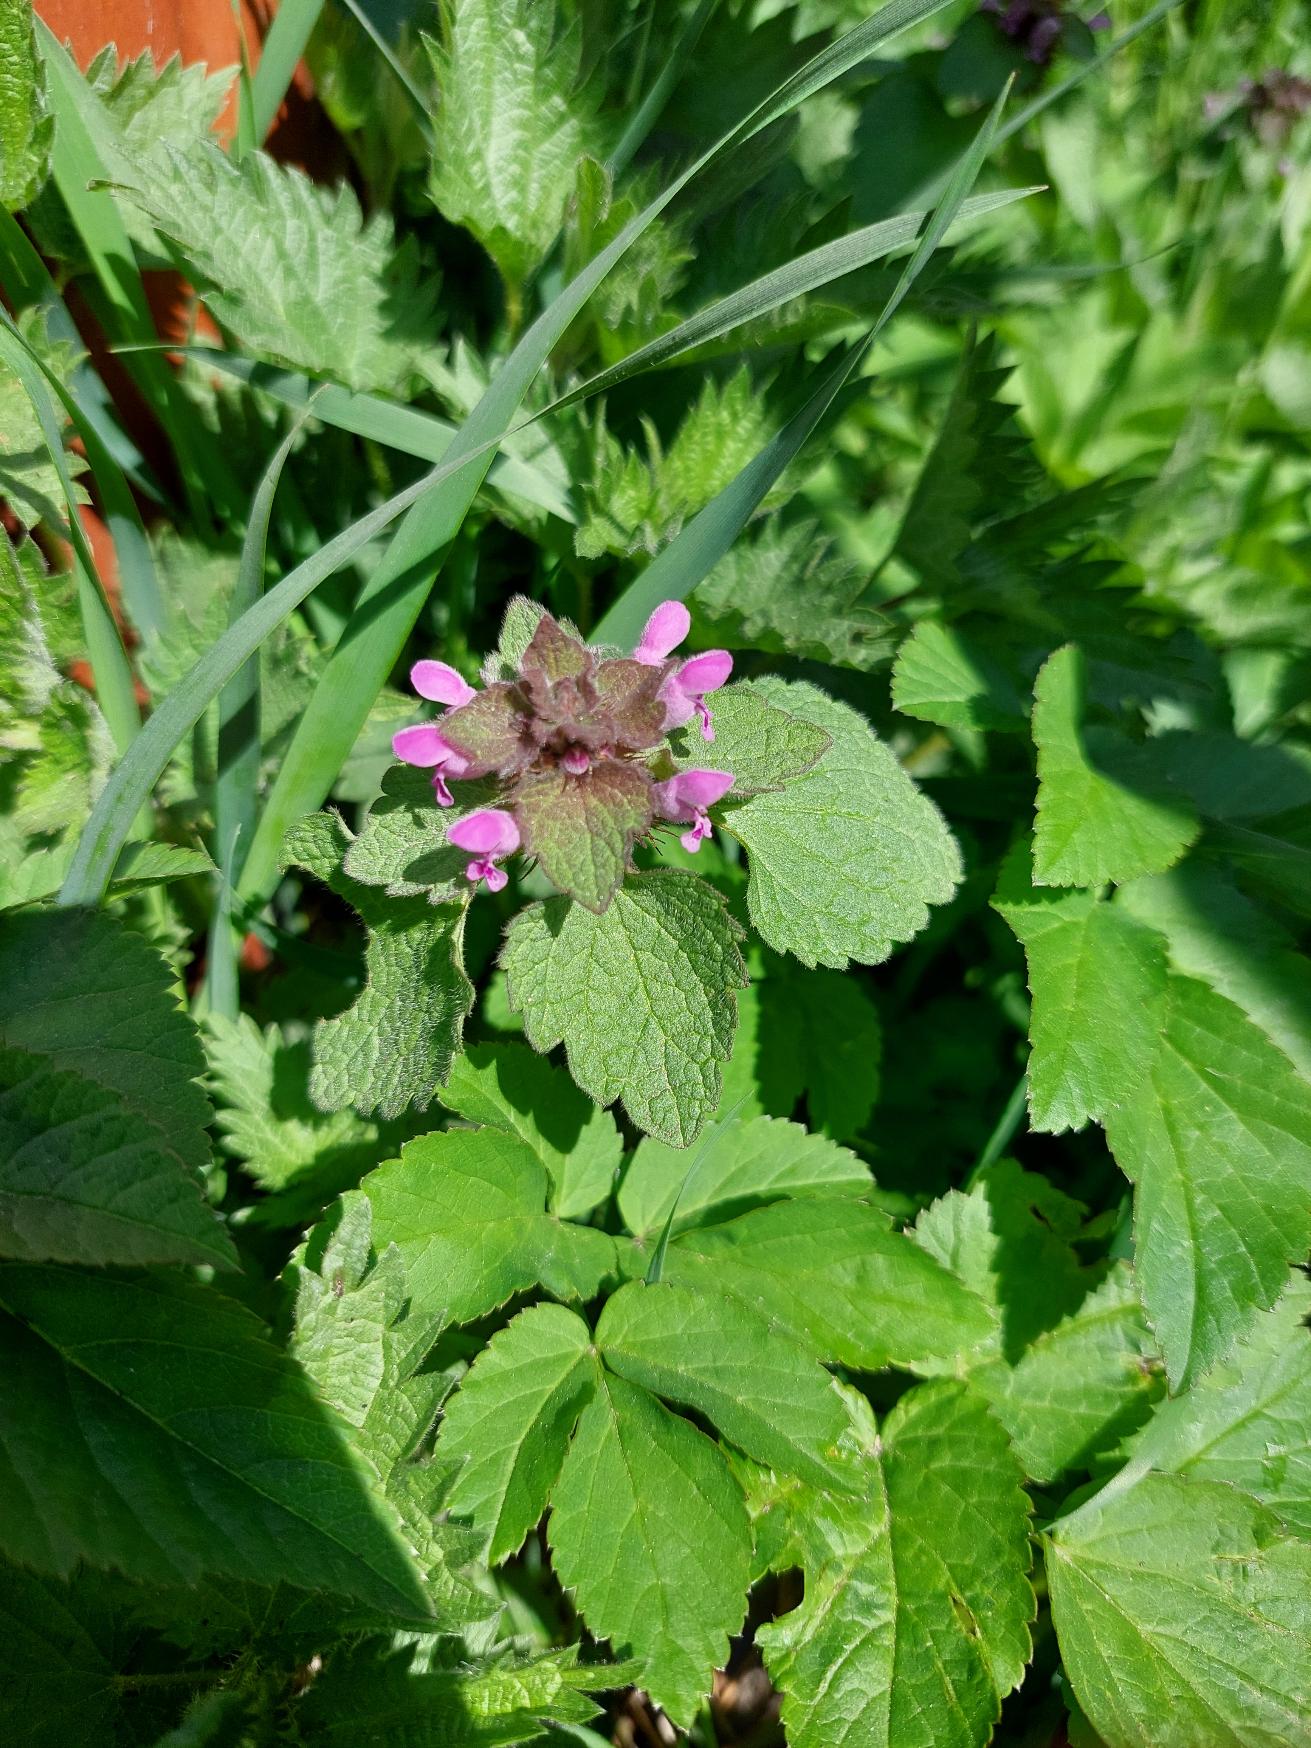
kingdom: Plantae
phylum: Tracheophyta
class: Magnoliopsida
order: Lamiales
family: Lamiaceae
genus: Lamium
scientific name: Lamium purpureum
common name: Rød tvetand
